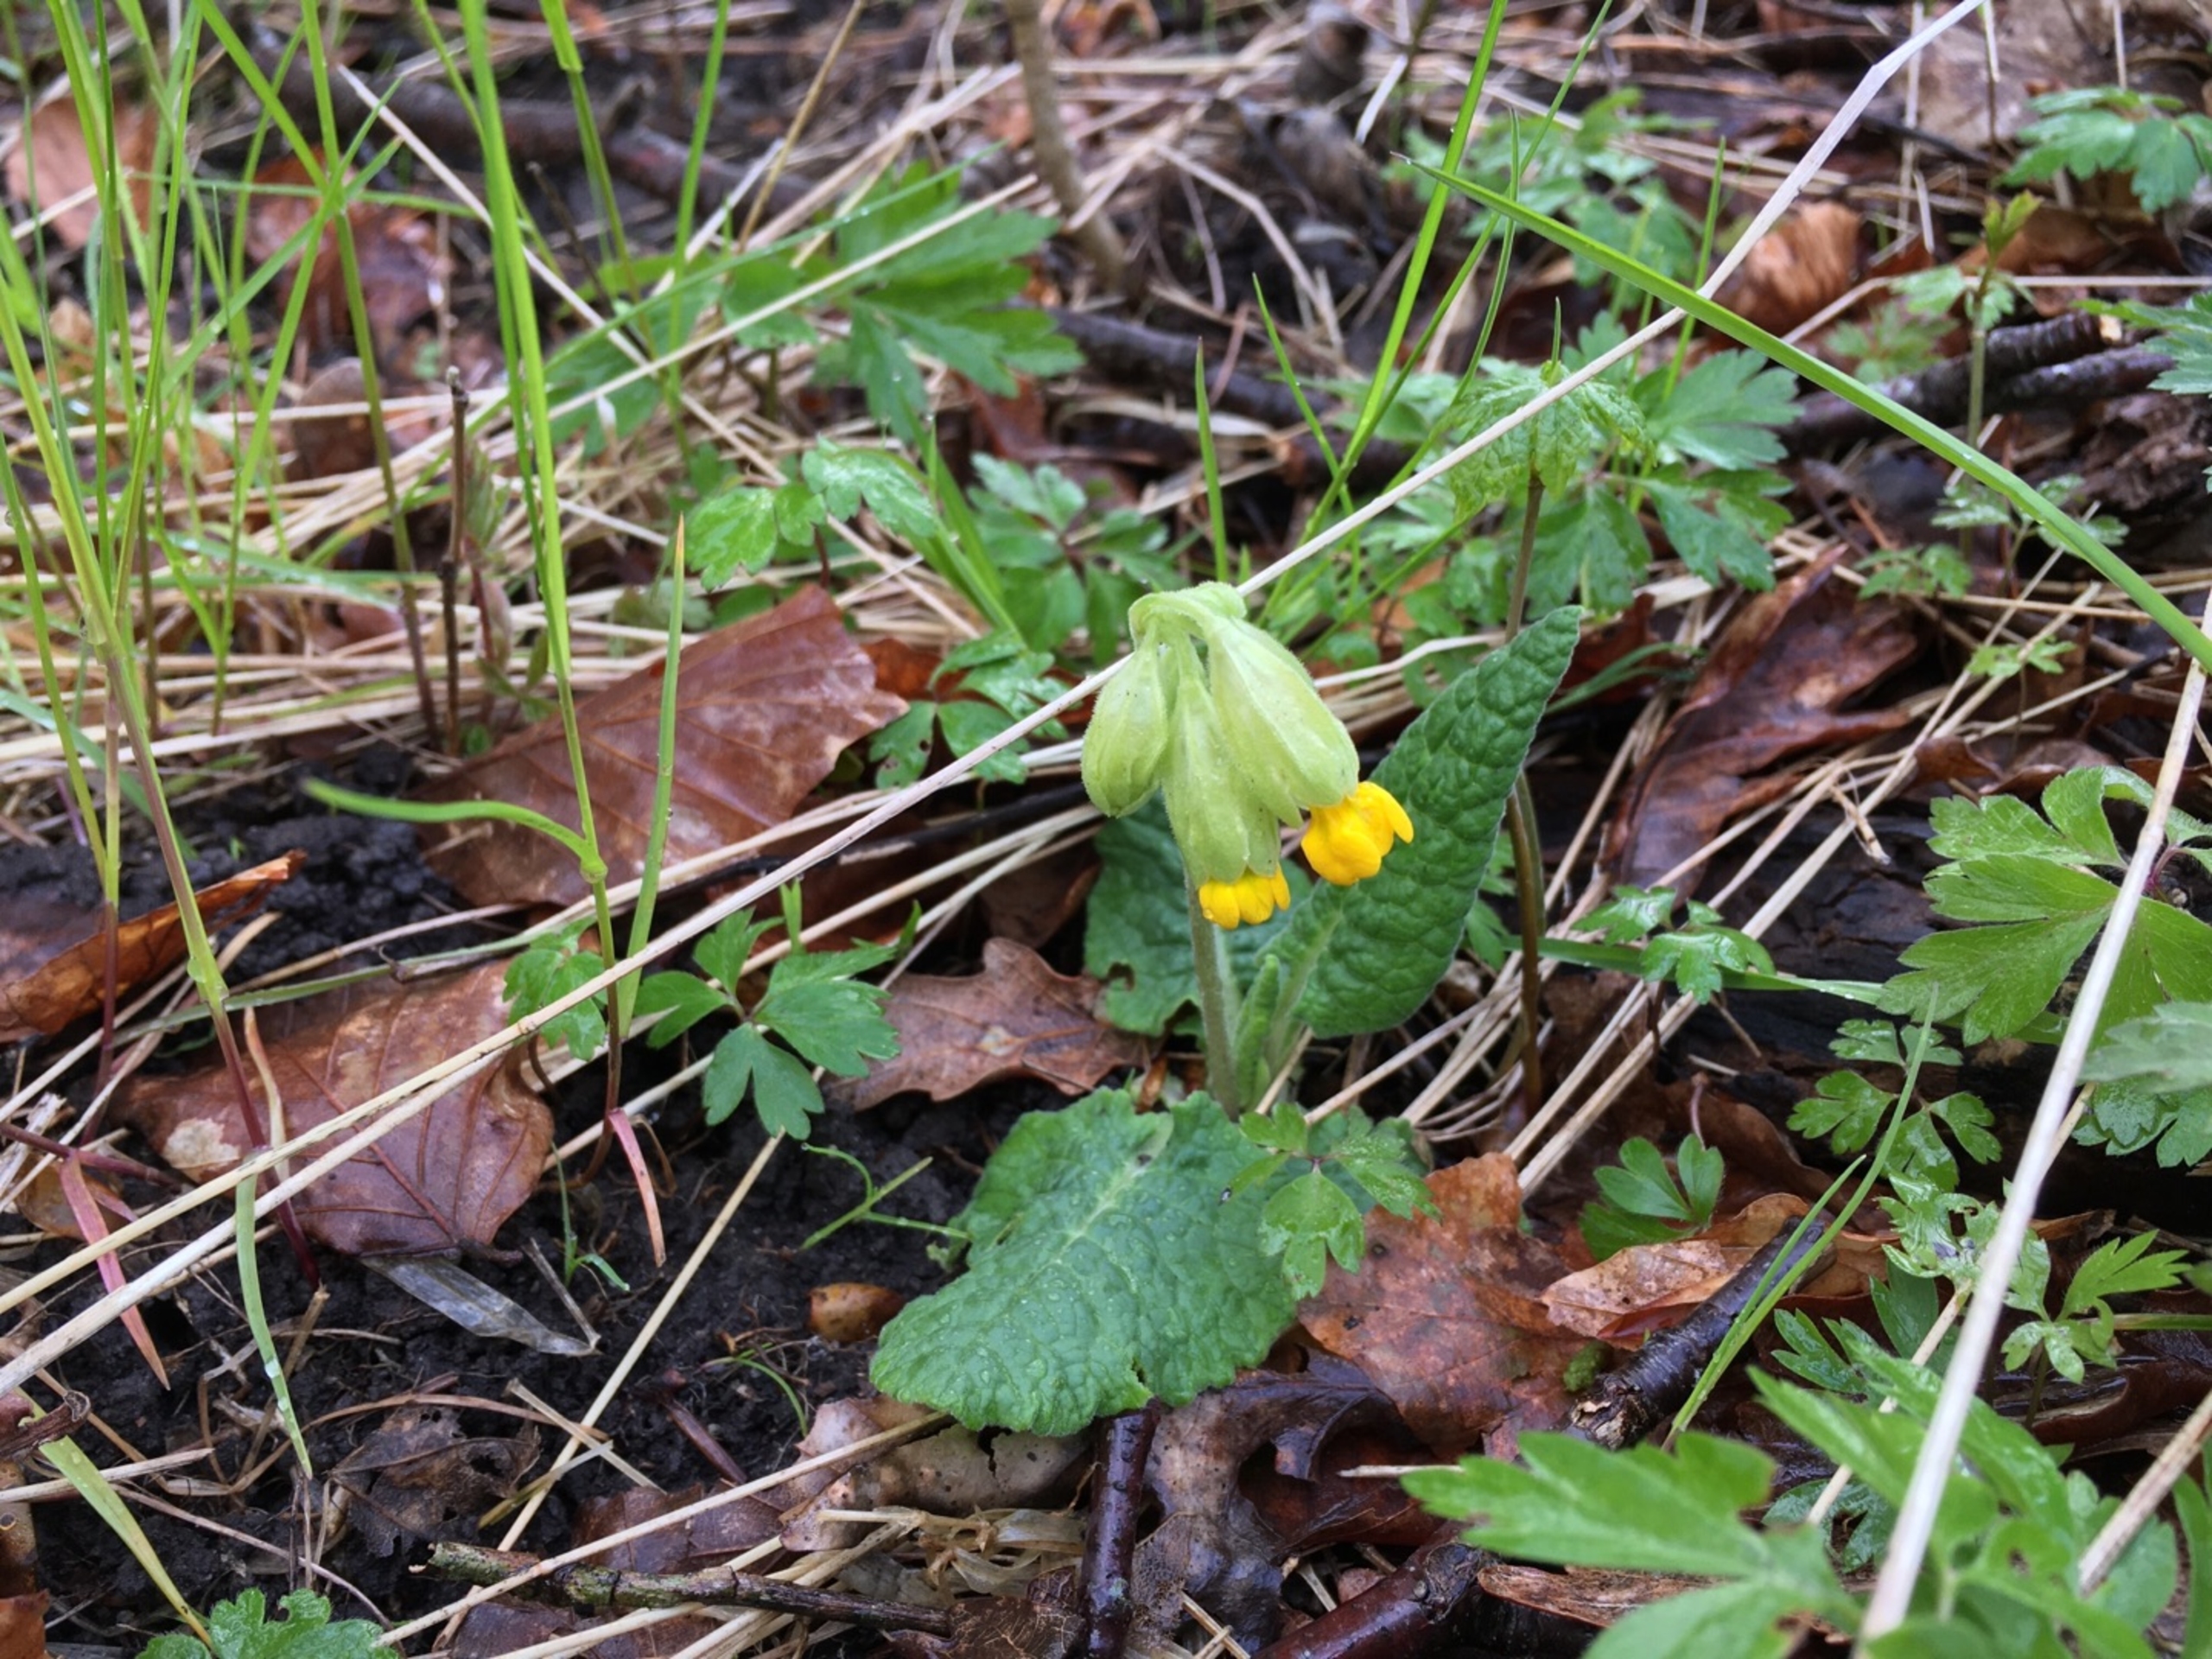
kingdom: Plantae
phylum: Tracheophyta
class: Magnoliopsida
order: Ericales
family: Primulaceae
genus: Primula
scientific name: Primula veris
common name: Hulkravet kodriver
